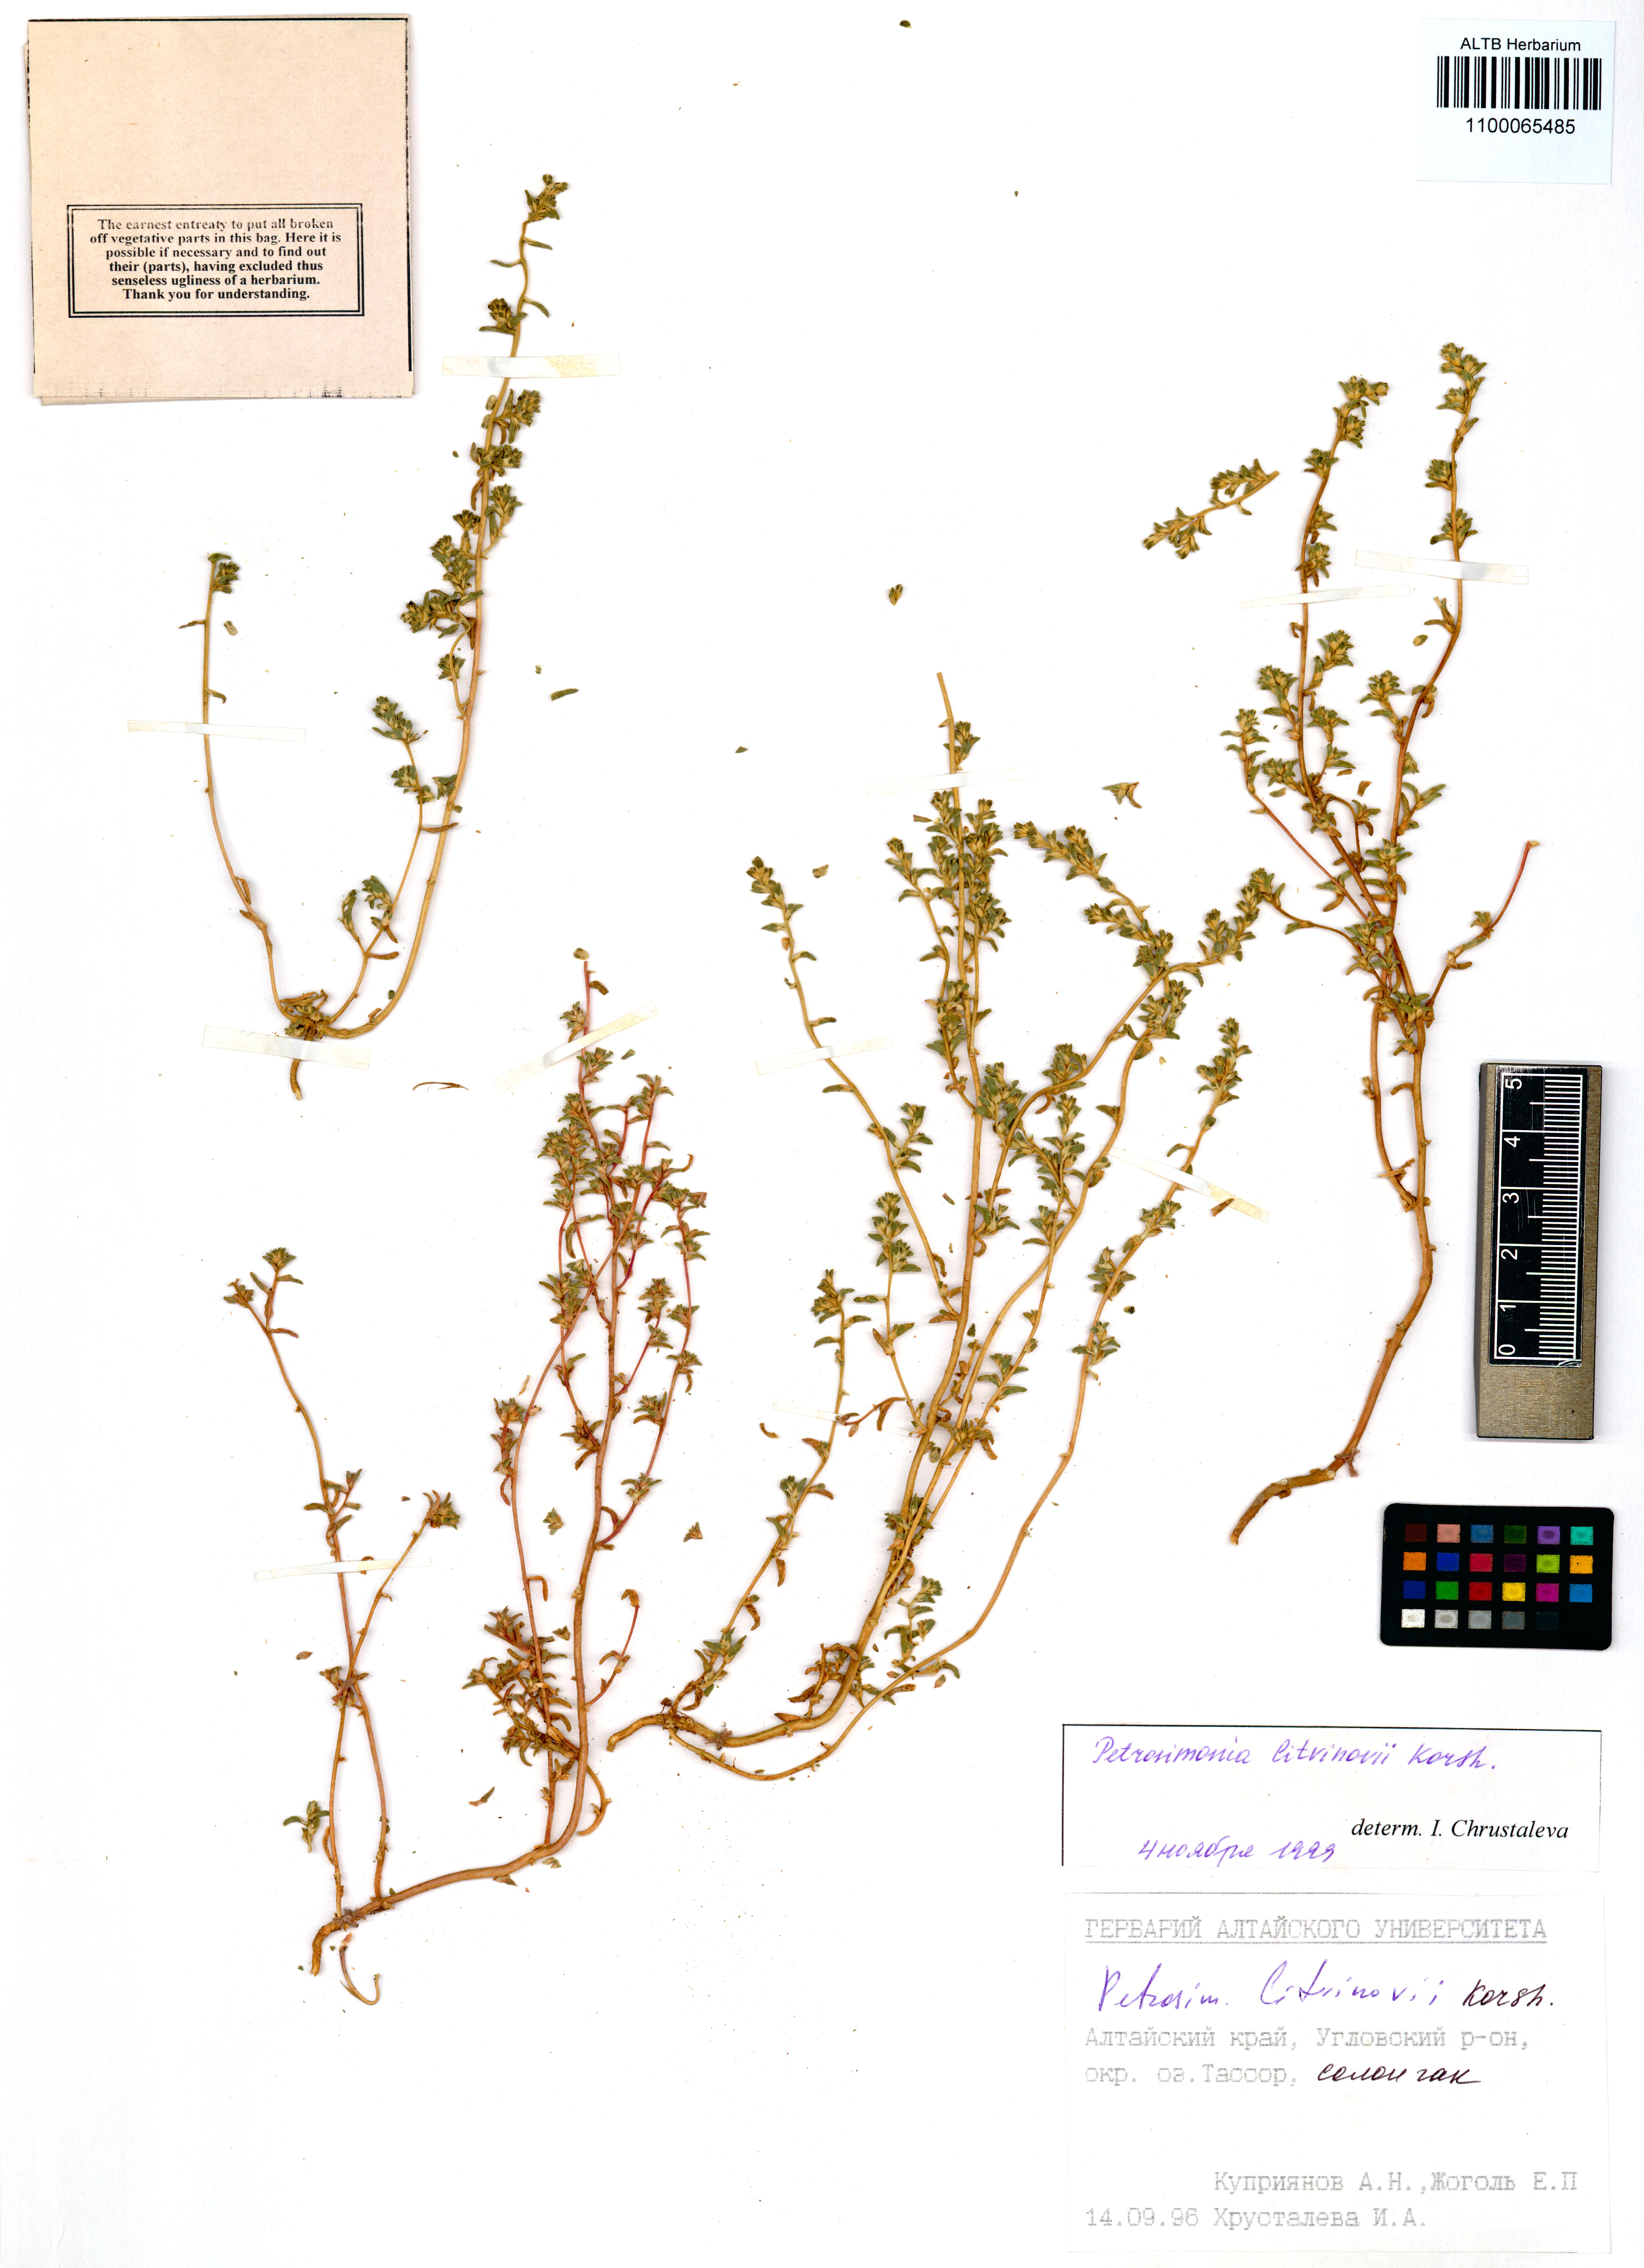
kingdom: Plantae
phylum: Tracheophyta
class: Magnoliopsida
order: Caryophyllales
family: Amaranthaceae
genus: Petrosimonia
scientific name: Petrosimonia litvinowi
